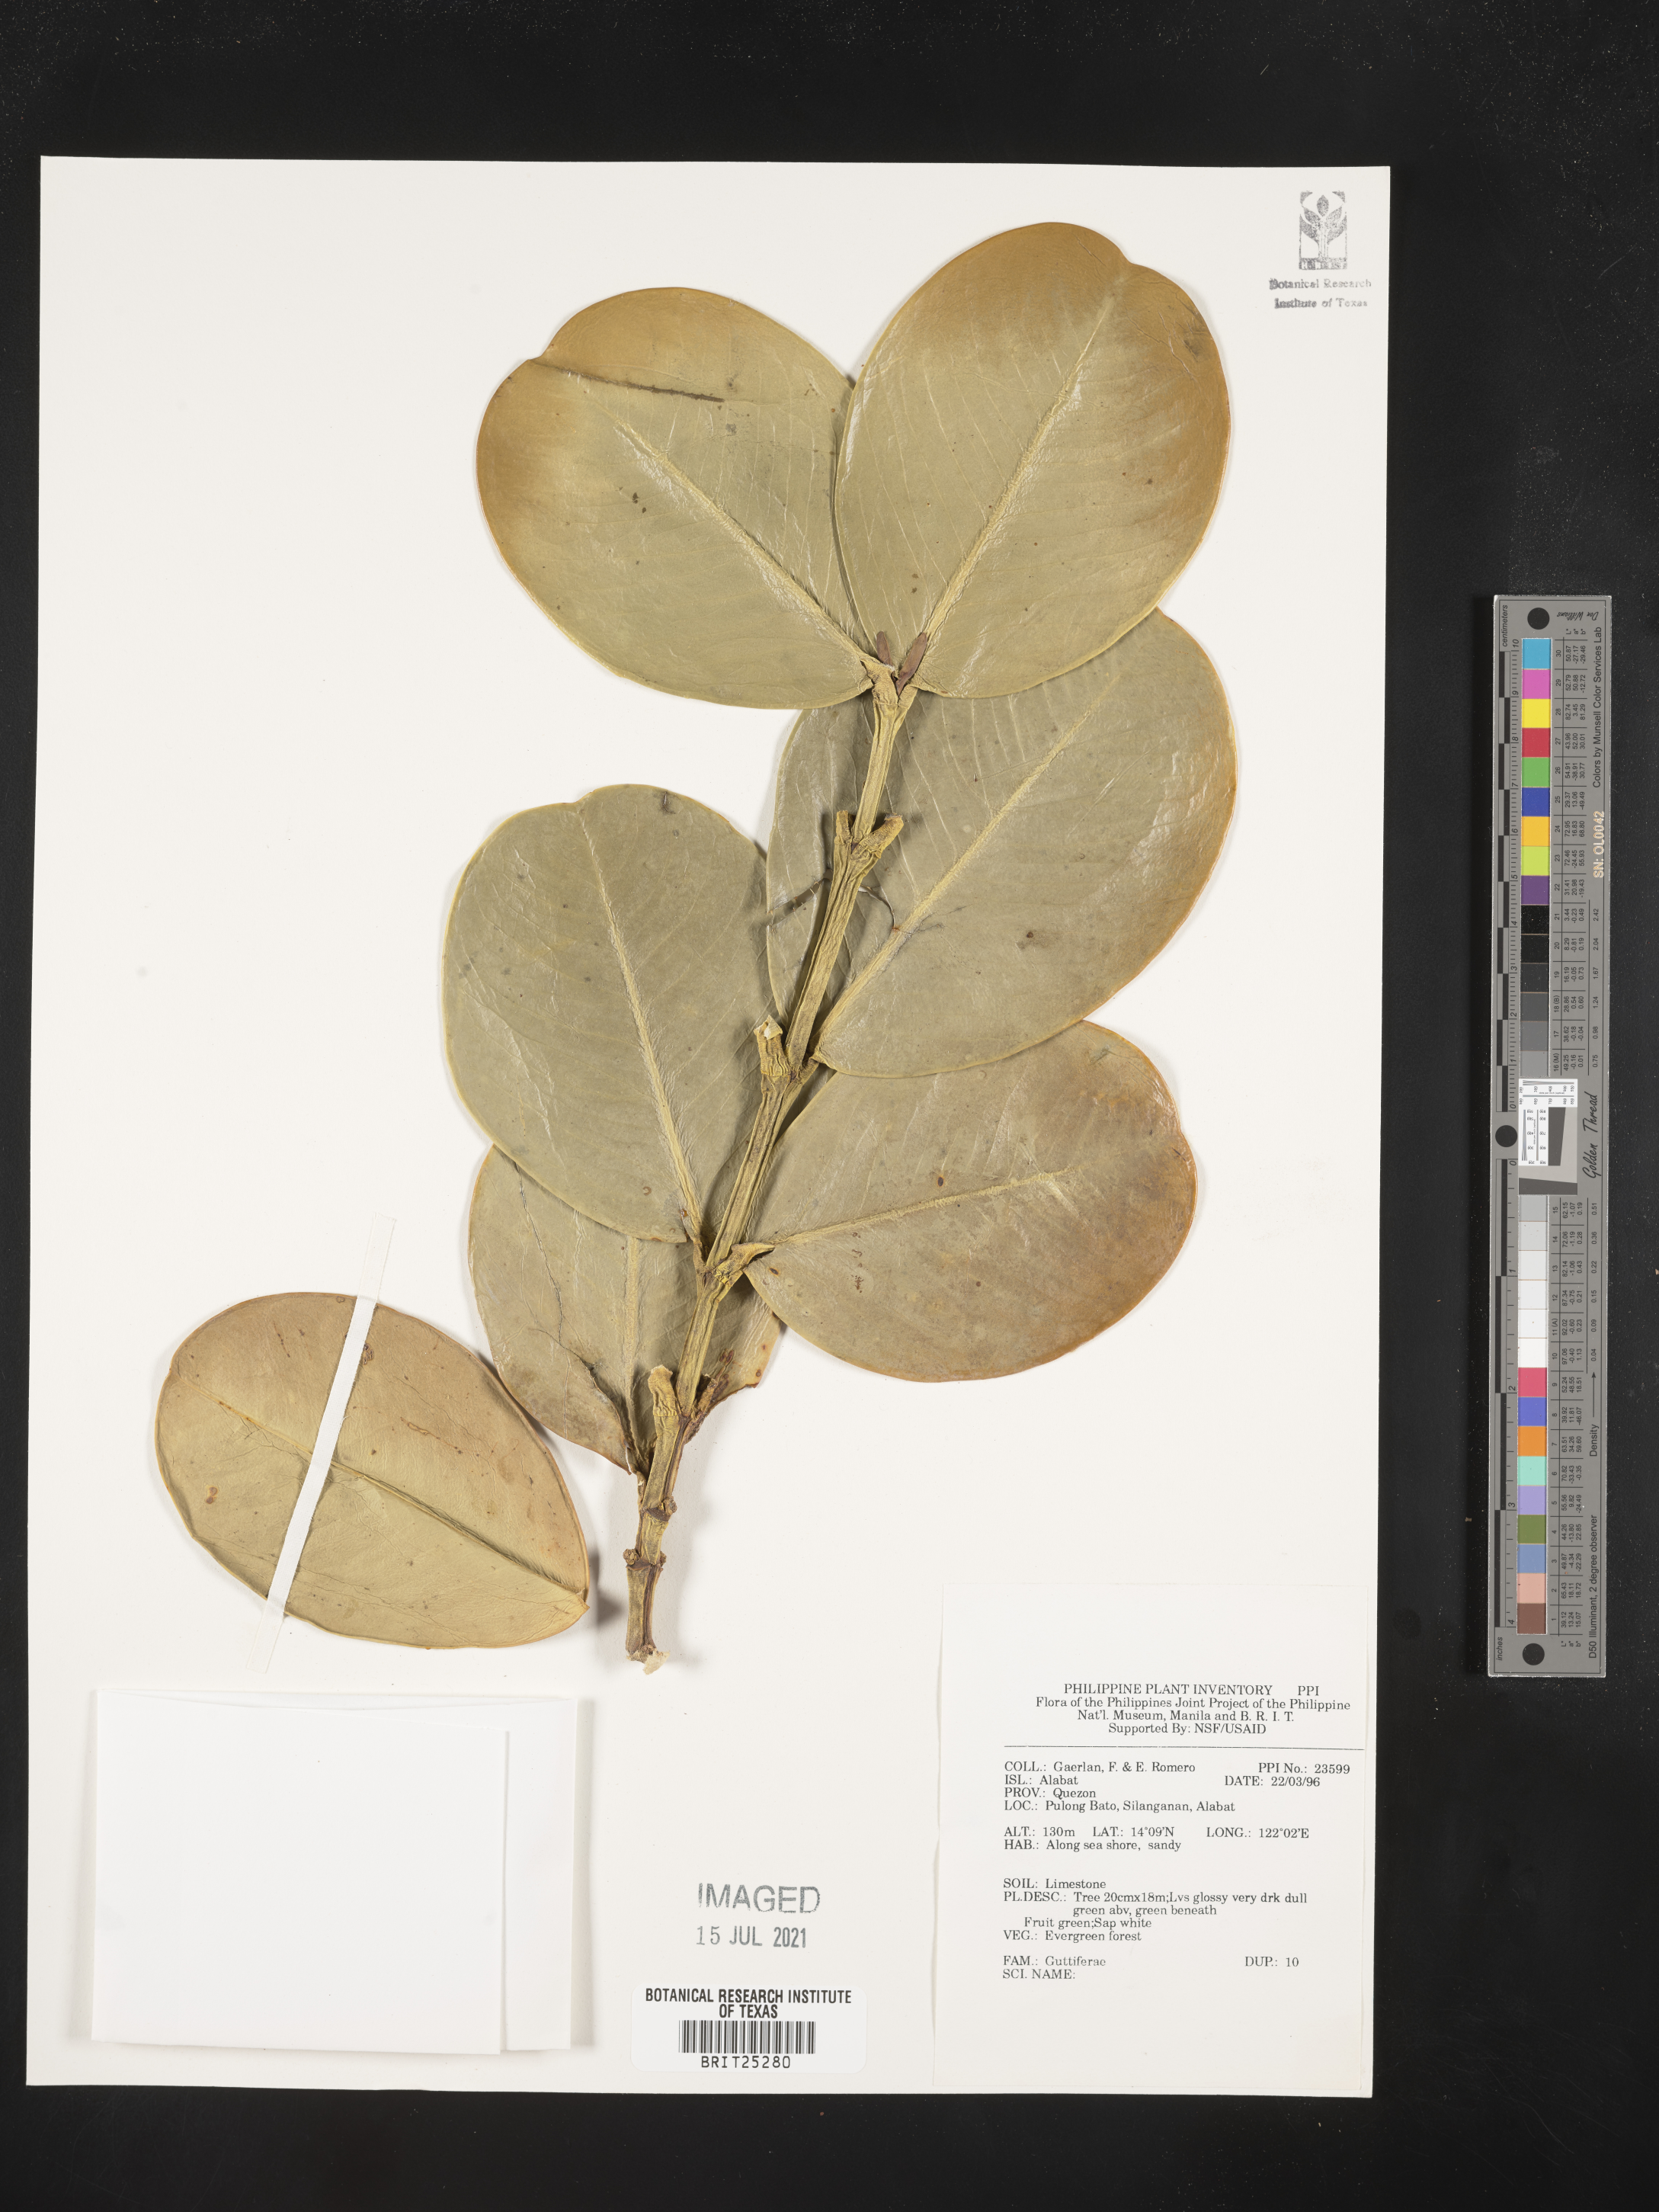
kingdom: Plantae
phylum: Tracheophyta
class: Magnoliopsida
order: Malpighiales
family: Hypericaceae
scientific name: Hypericaceae
